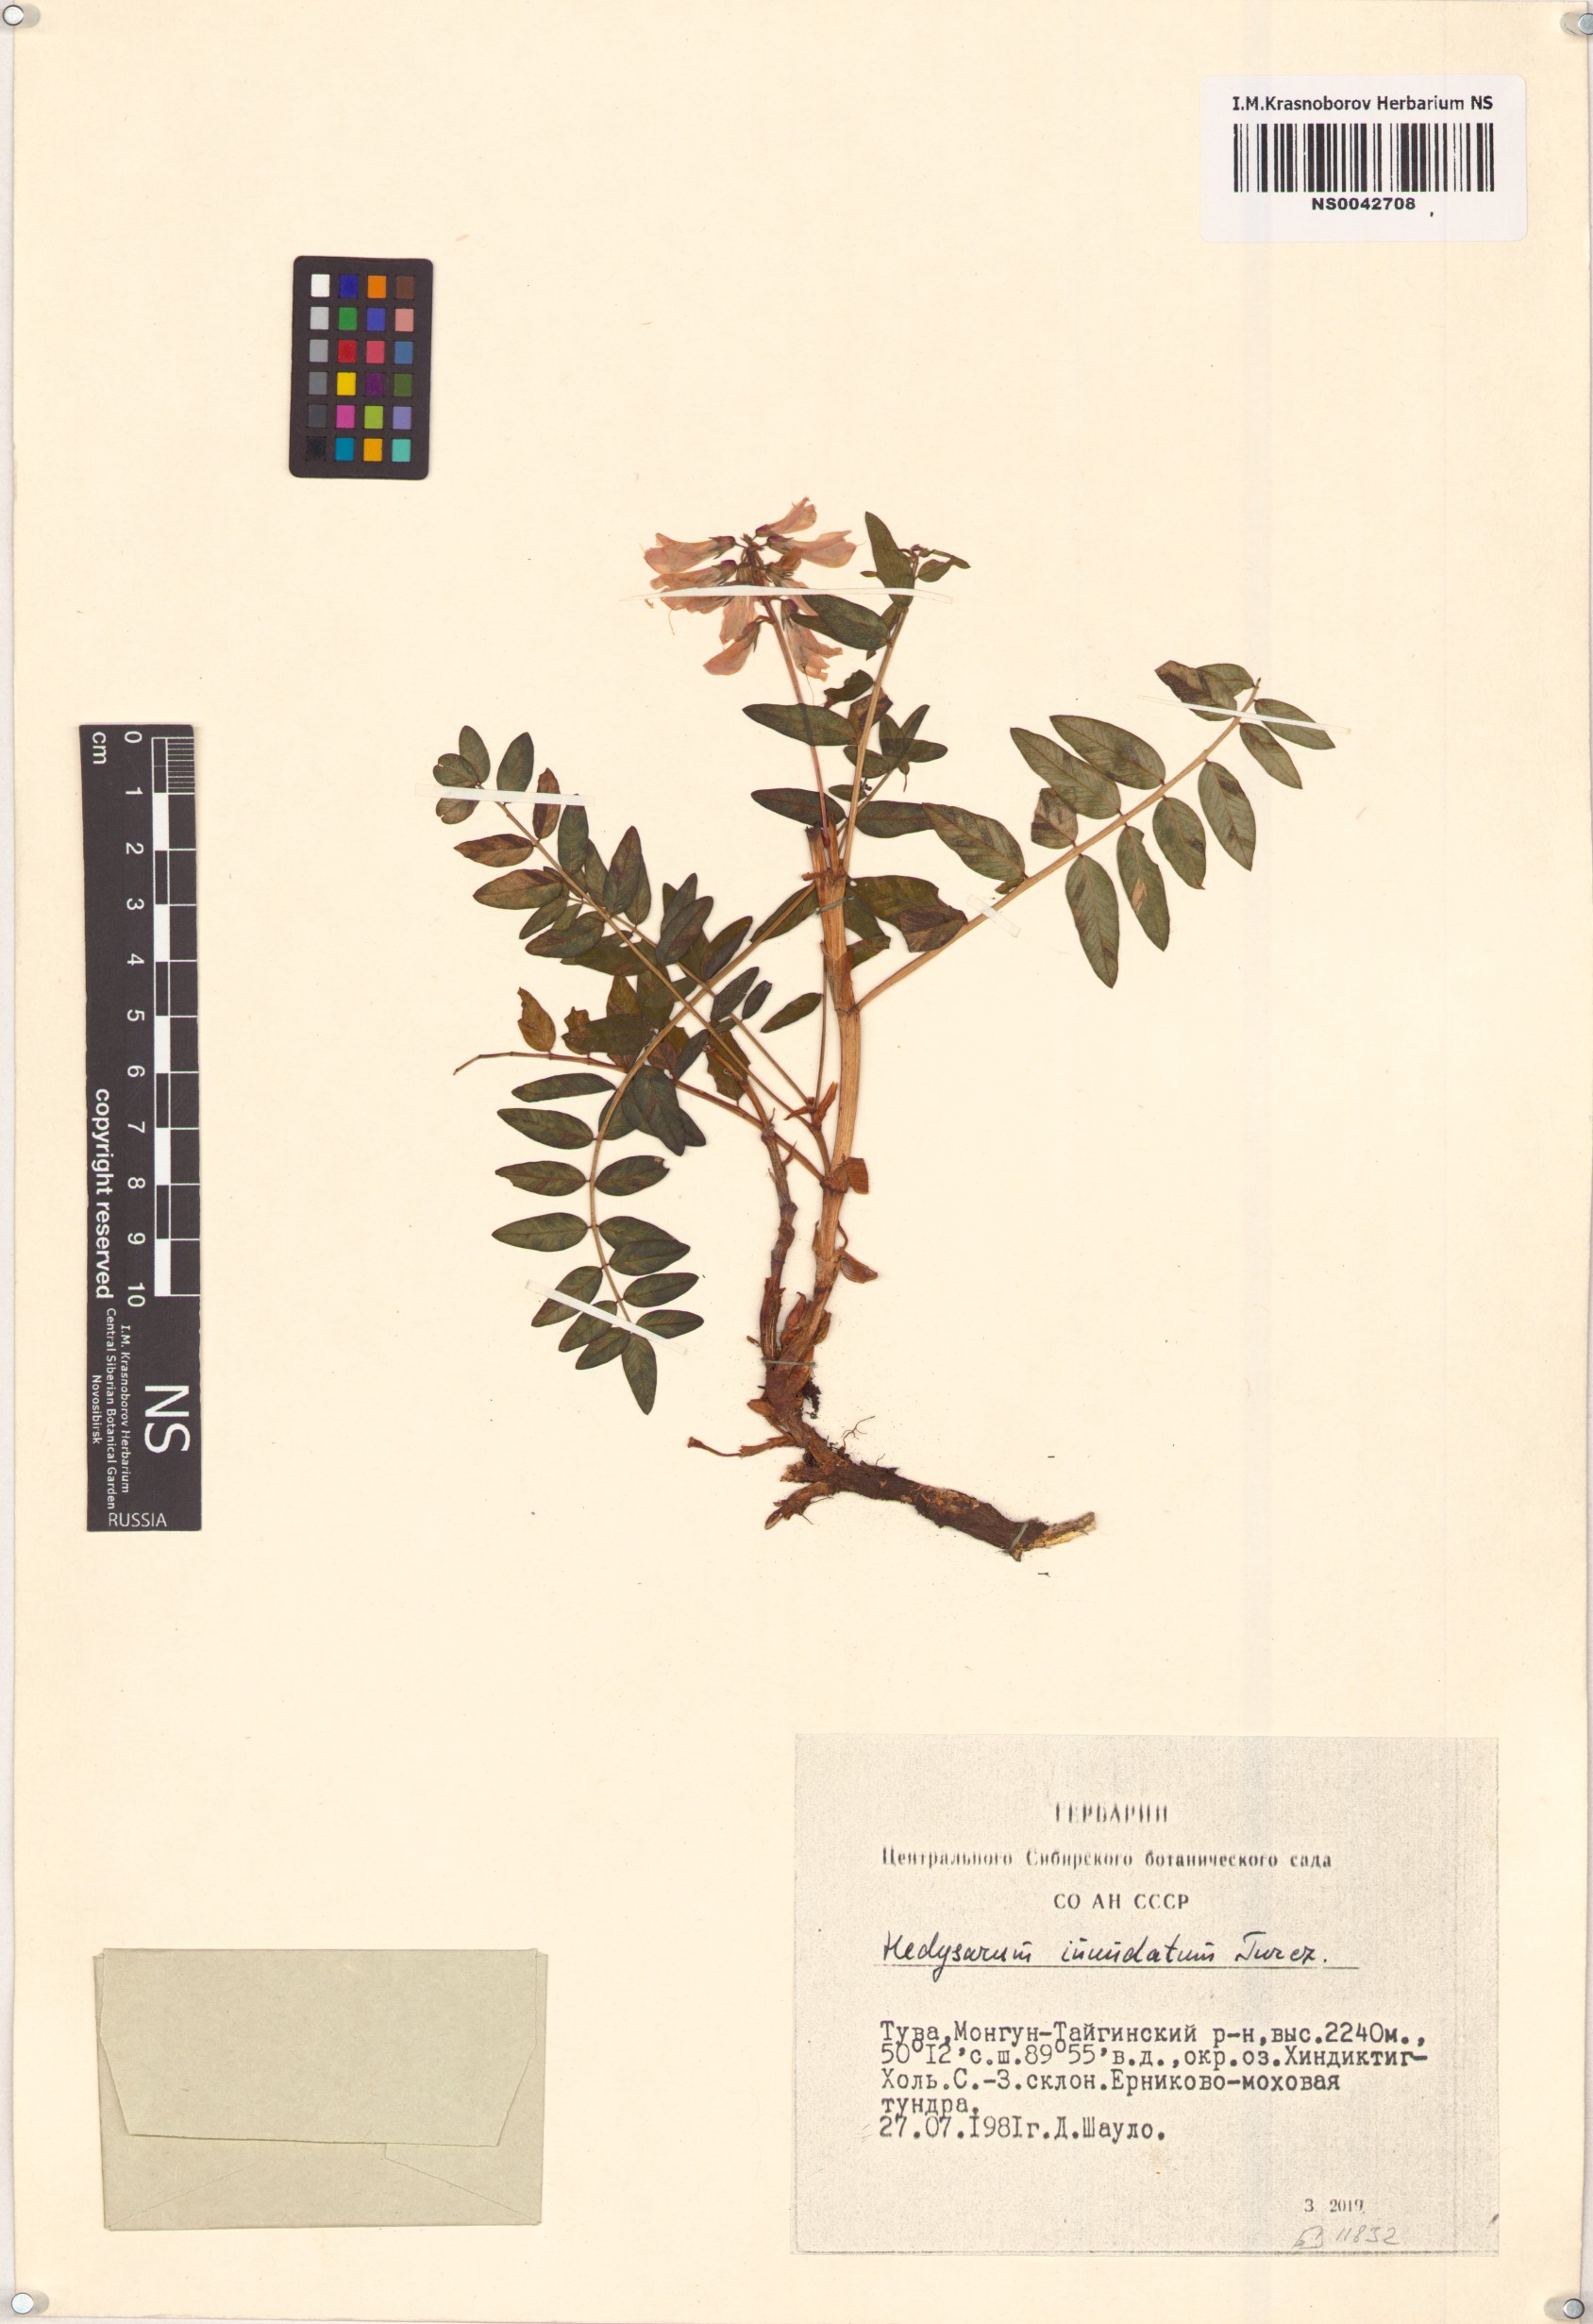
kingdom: Plantae
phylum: Tracheophyta
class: Magnoliopsida
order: Fabales
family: Fabaceae
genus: Hedysarum
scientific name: Hedysarum inundatum
